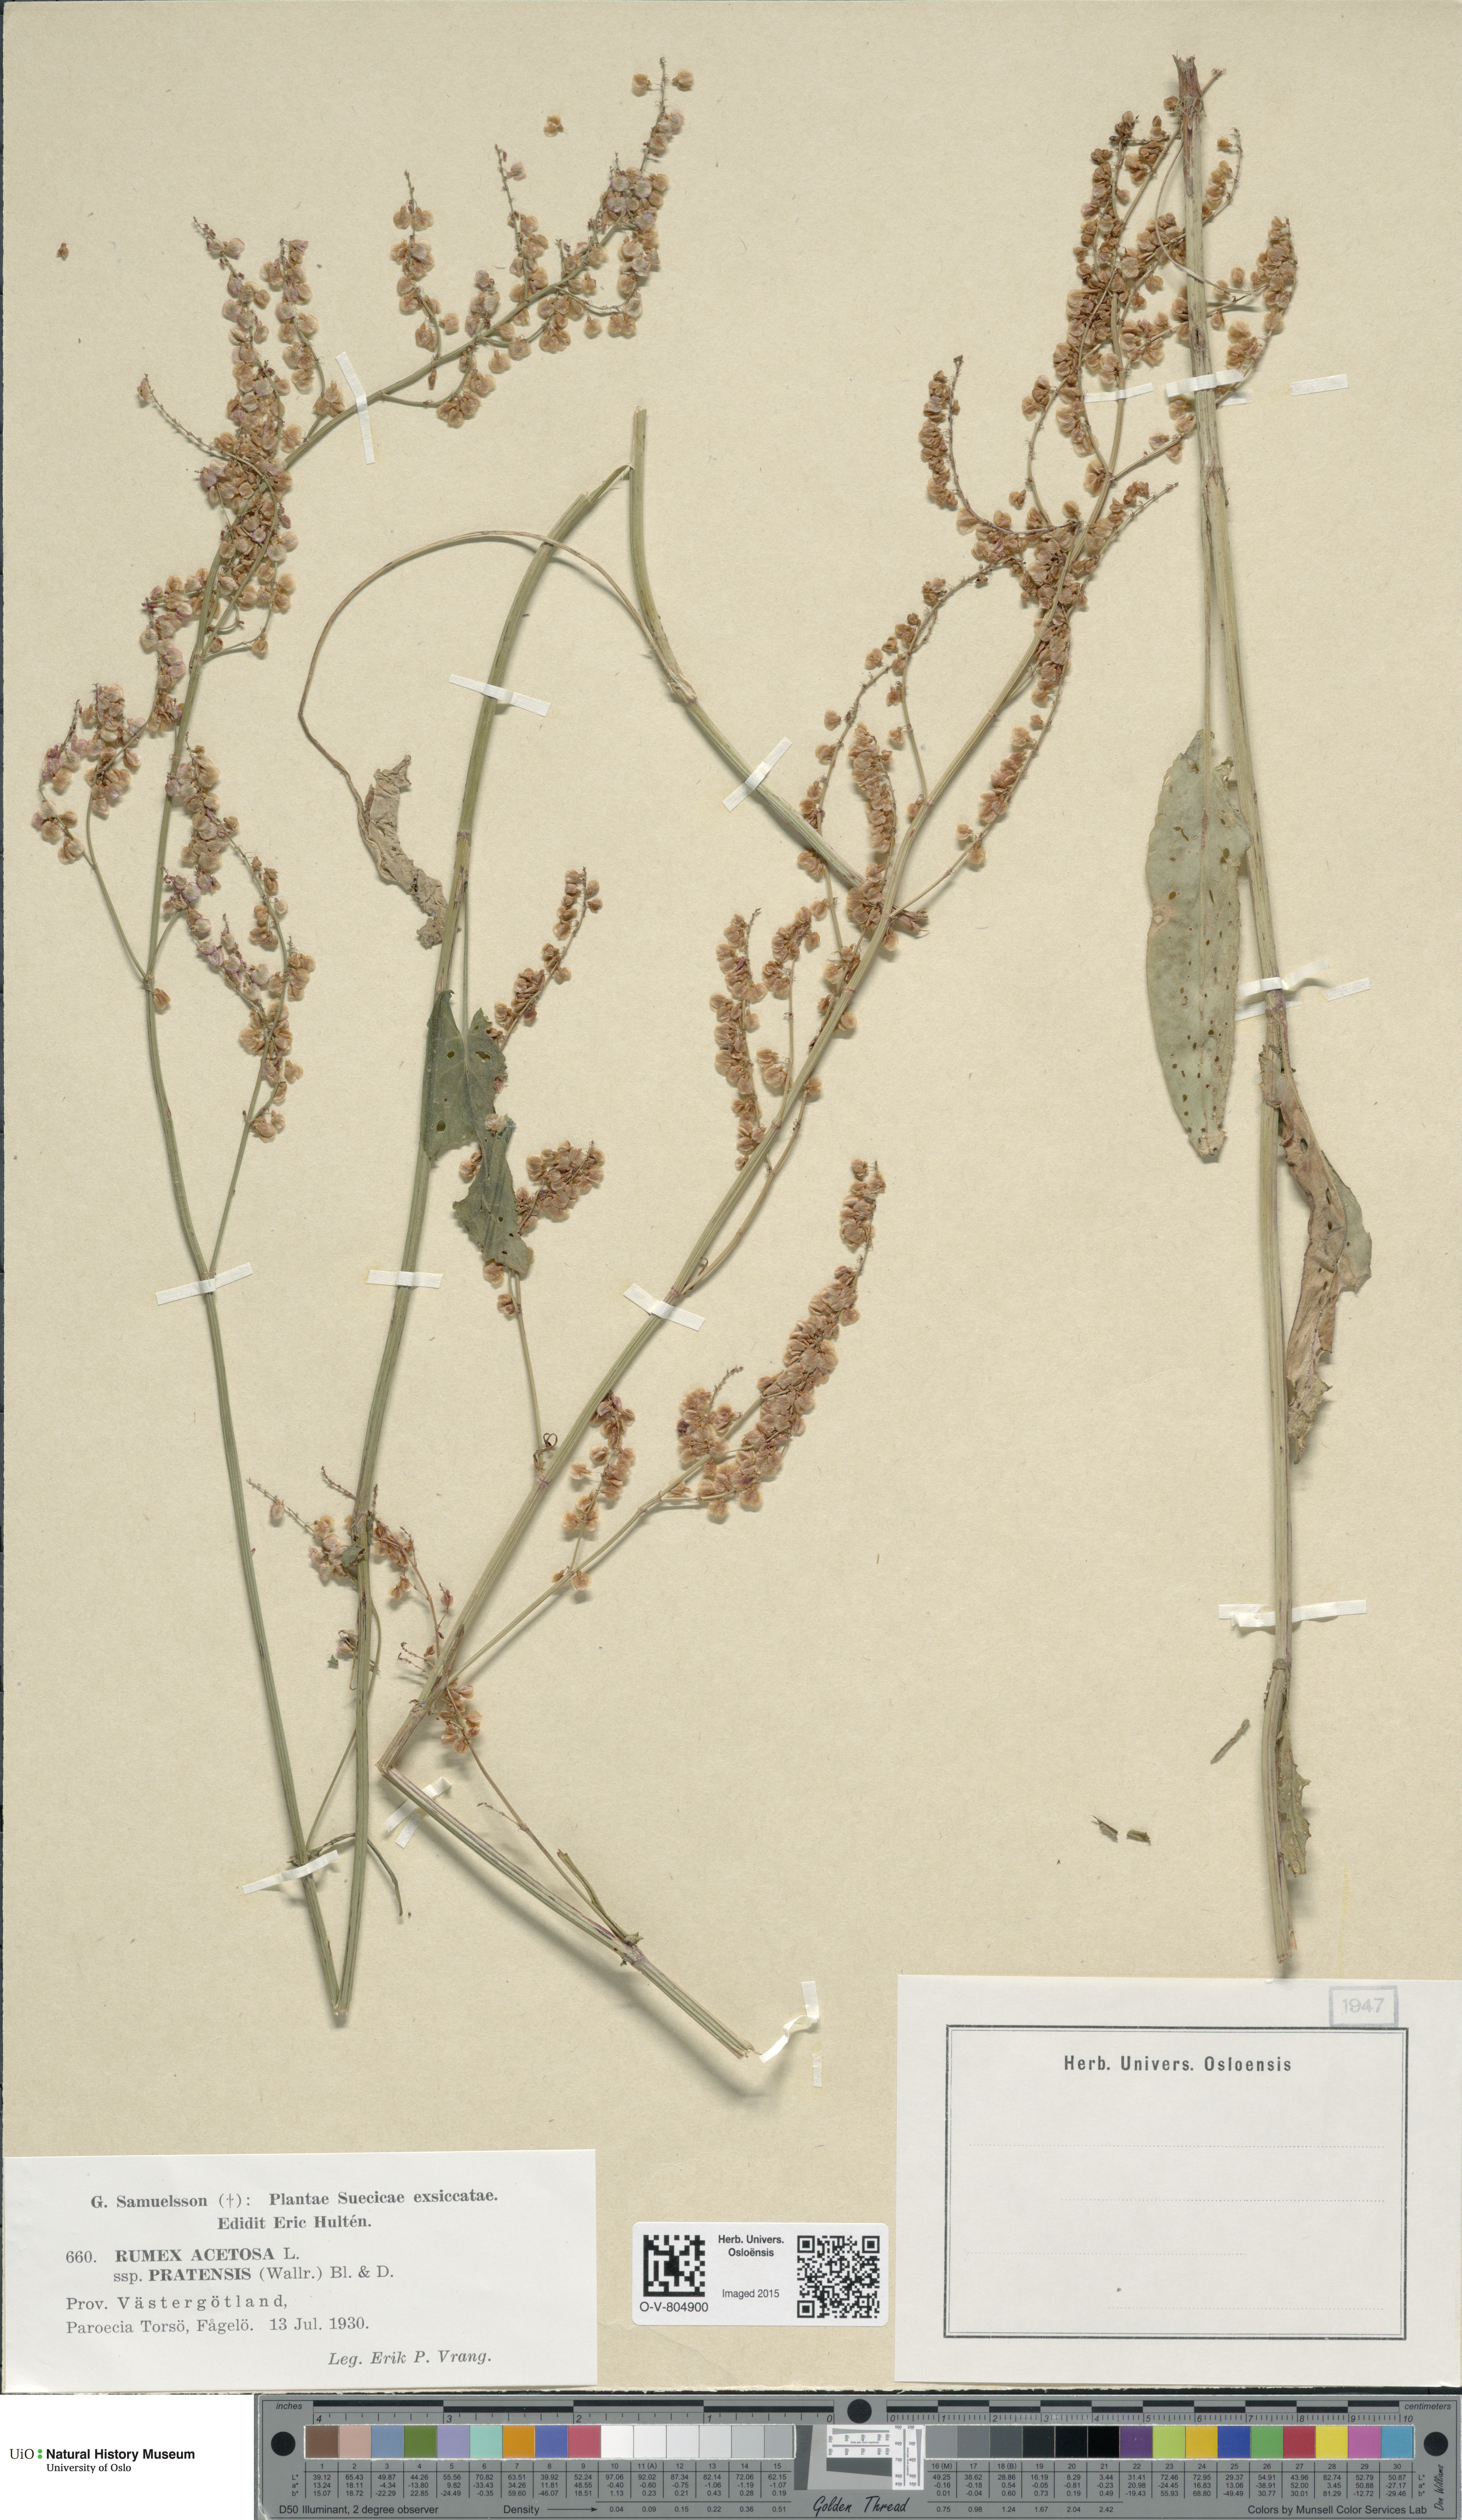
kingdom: Plantae
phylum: Tracheophyta
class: Magnoliopsida
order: Caryophyllales
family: Polygonaceae
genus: Rumex
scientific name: Rumex acetosa
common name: Garden sorrel
